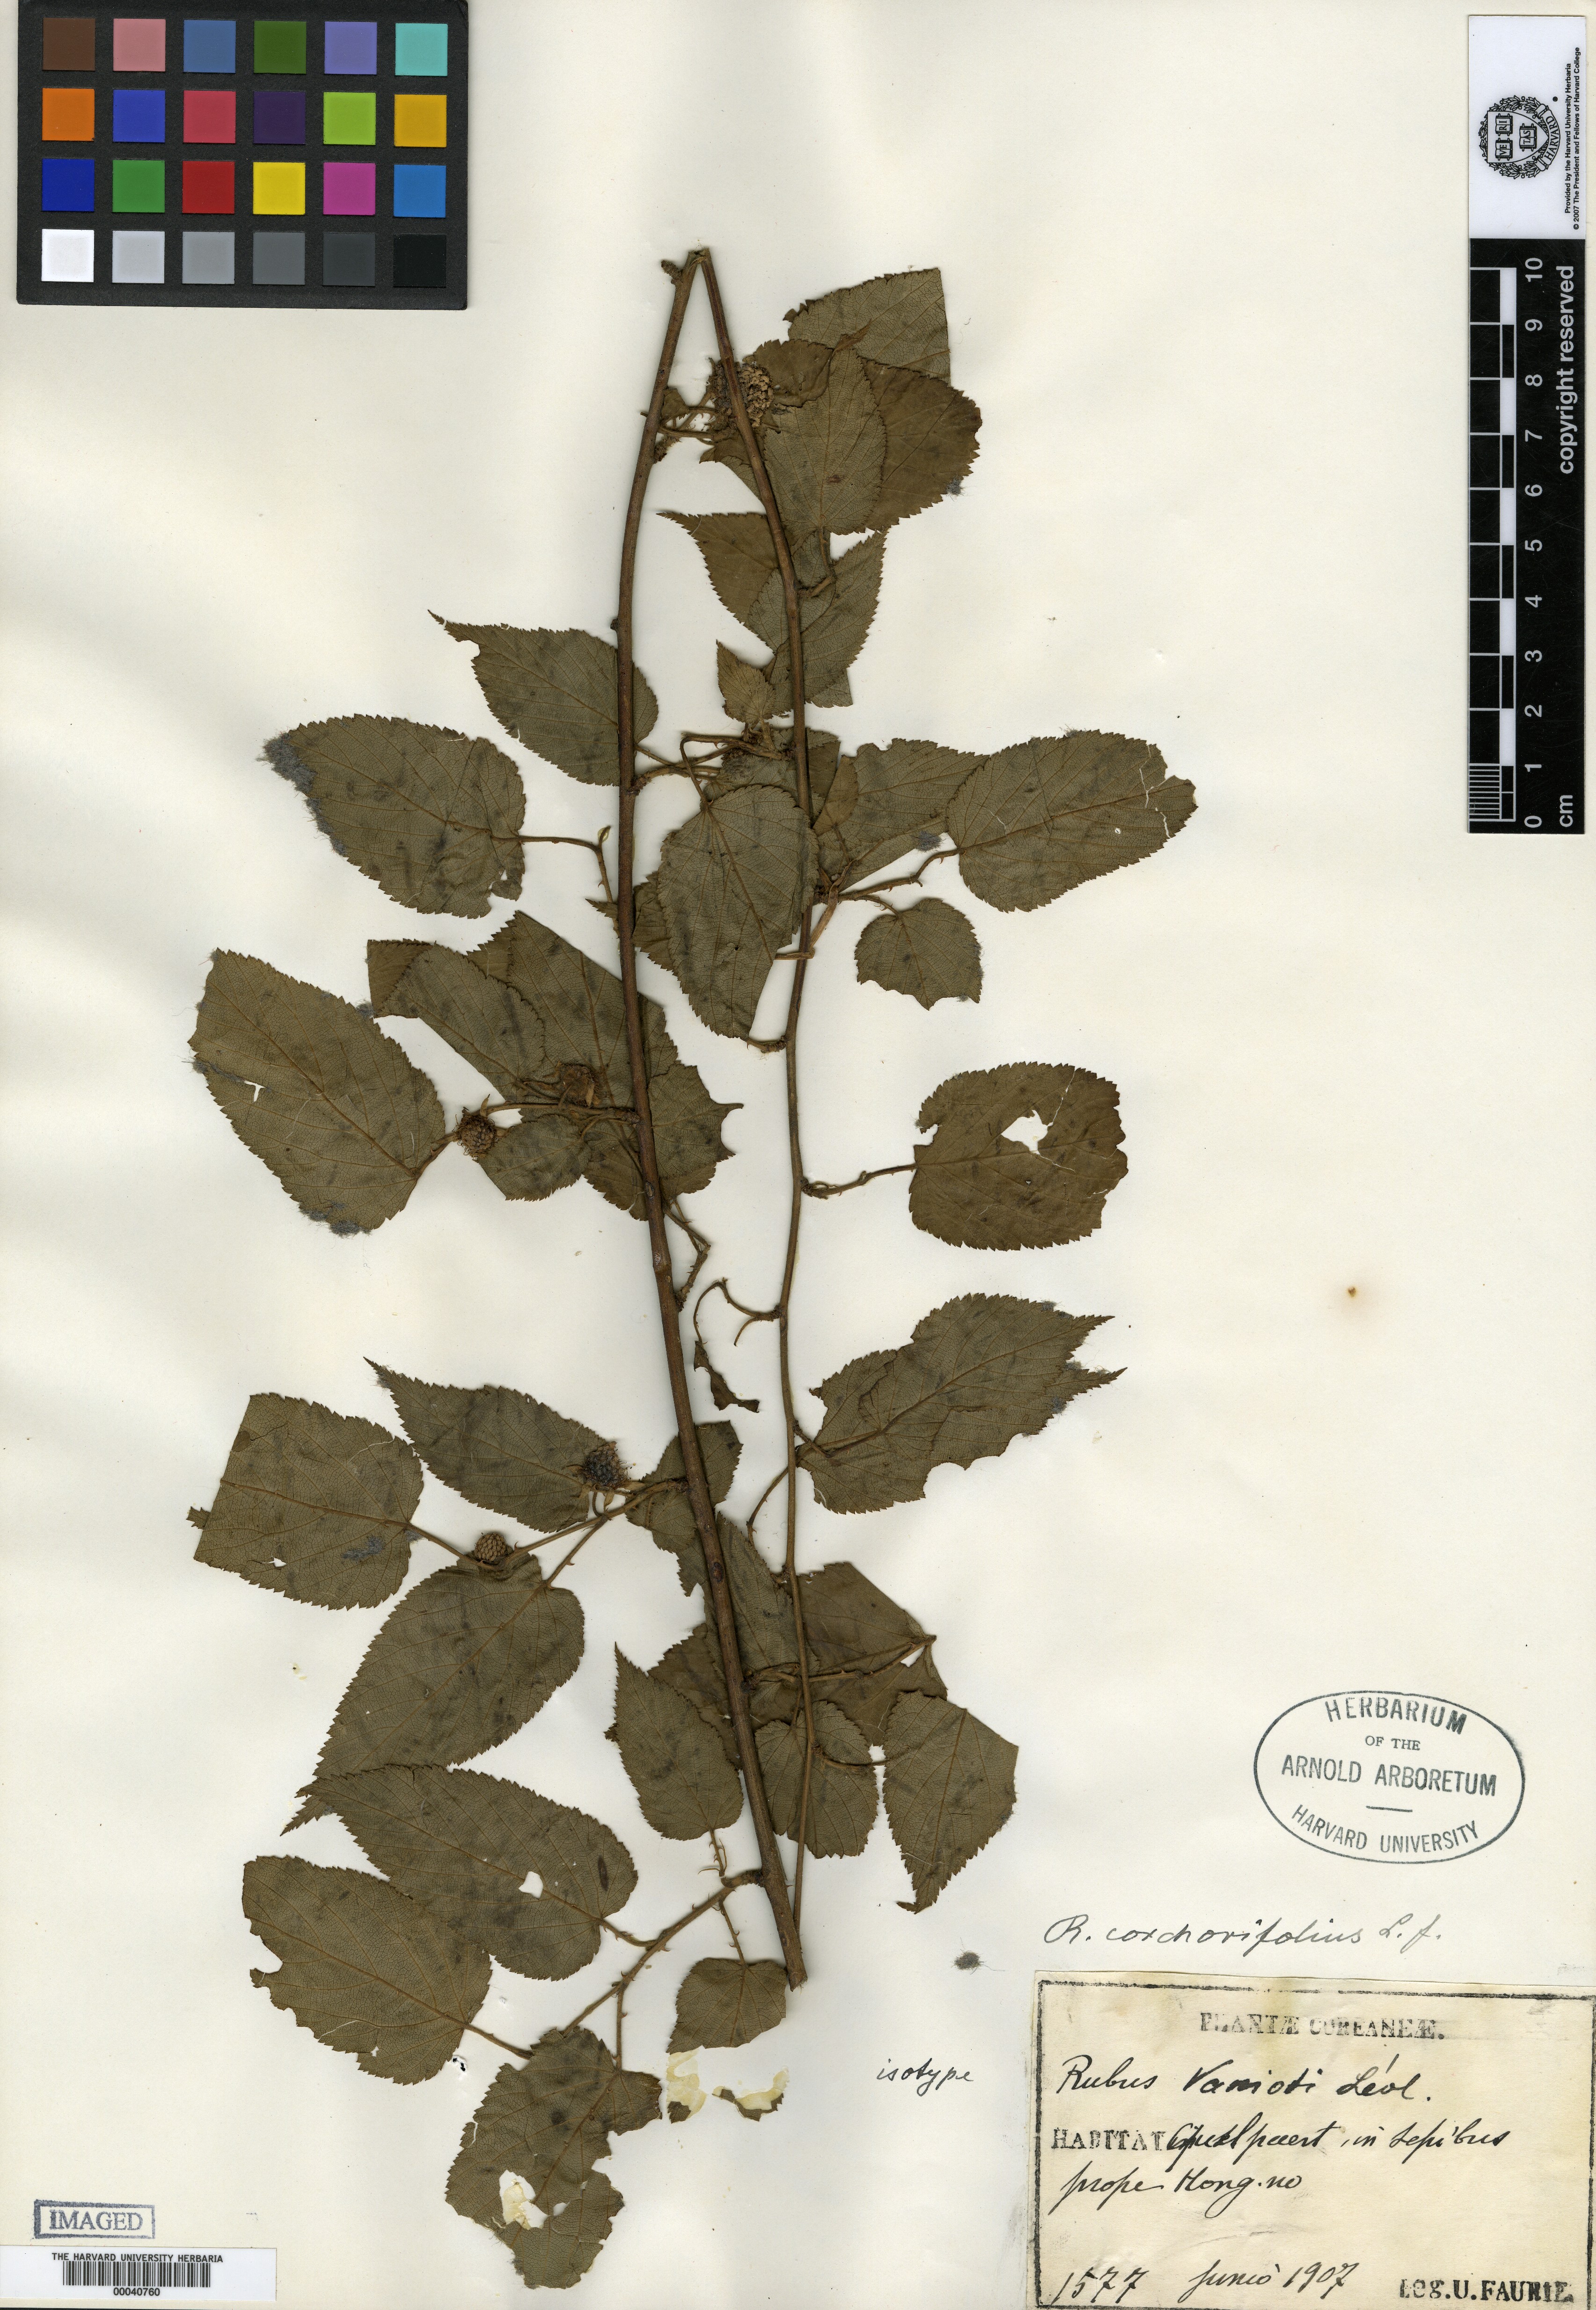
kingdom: Plantae
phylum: Tracheophyta
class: Magnoliopsida
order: Rosales
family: Rosaceae
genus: Rubus
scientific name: Rubus corchorifolius
